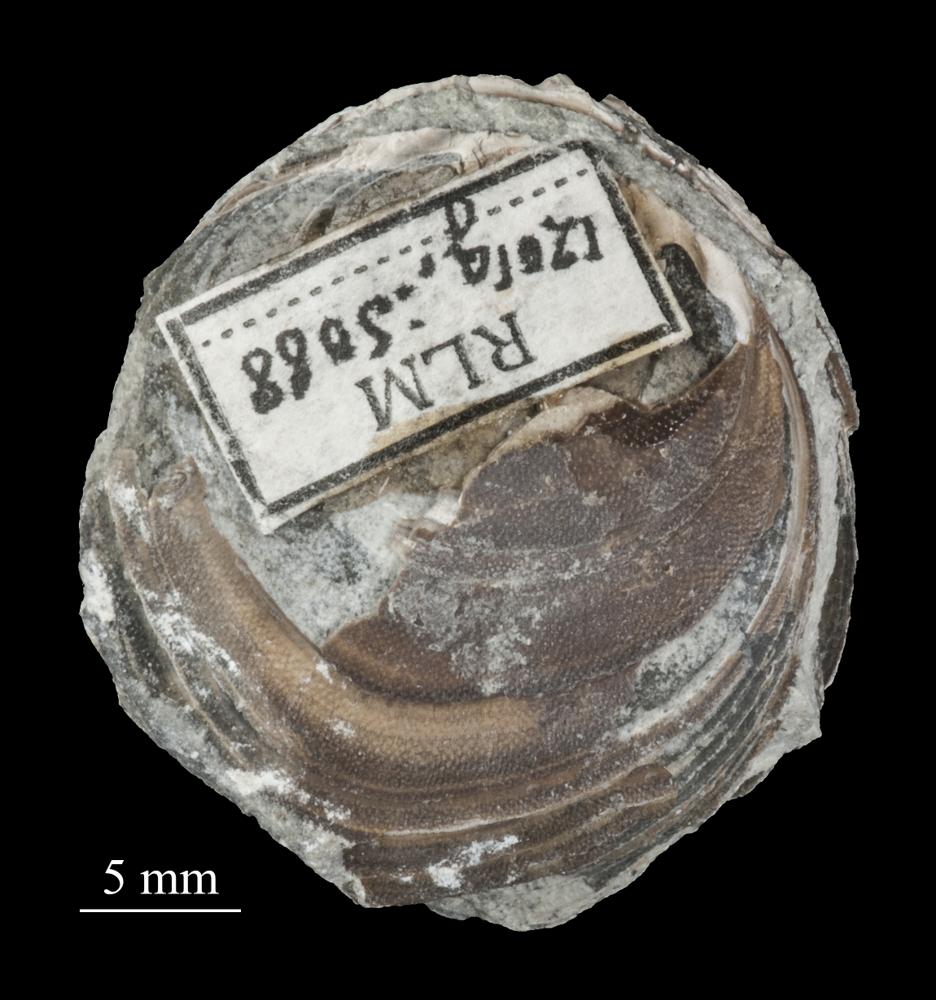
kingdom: Animalia
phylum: Brachiopoda
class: Lingulata
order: Siphonotretida
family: Siphonotretidae
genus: Siphonotreta
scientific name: Siphonotreta
